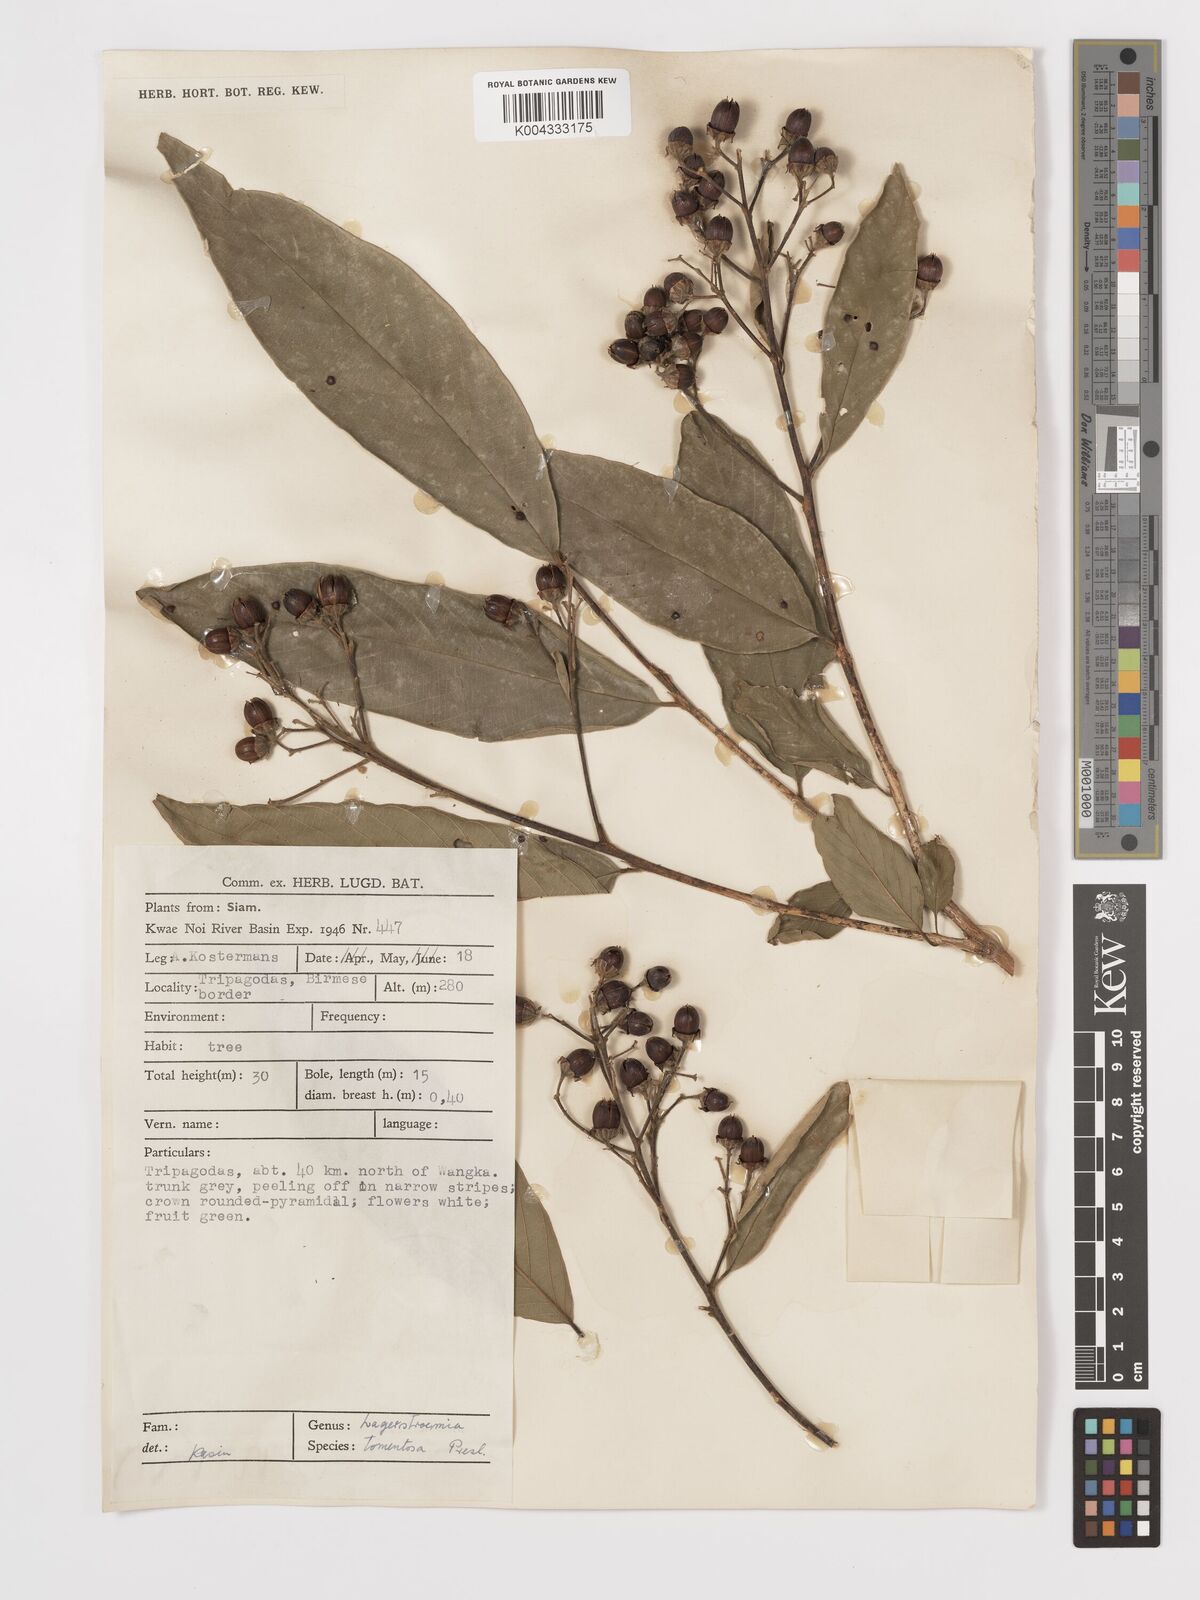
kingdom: Plantae
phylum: Tracheophyta
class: Magnoliopsida
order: Myrtales
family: Lythraceae
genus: Lagerstroemia
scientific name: Lagerstroemia tomentosa
